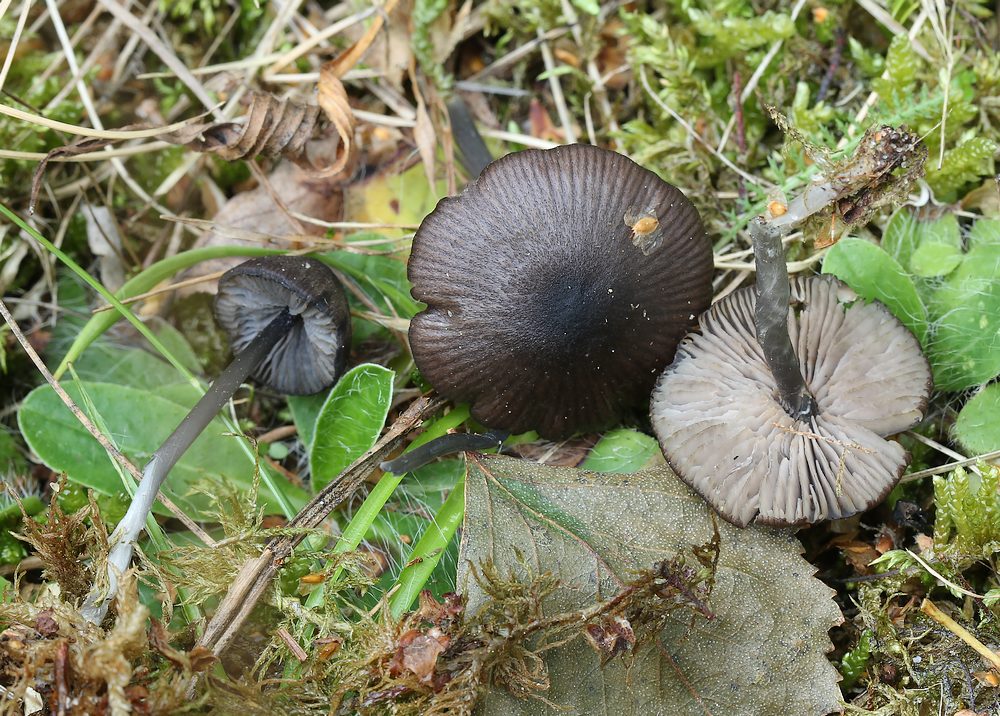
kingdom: Fungi
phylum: Basidiomycota
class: Agaricomycetes
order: Agaricales
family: Entolomataceae
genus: Entoloma
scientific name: Entoloma chalybeum
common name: blåbladet rødblad
